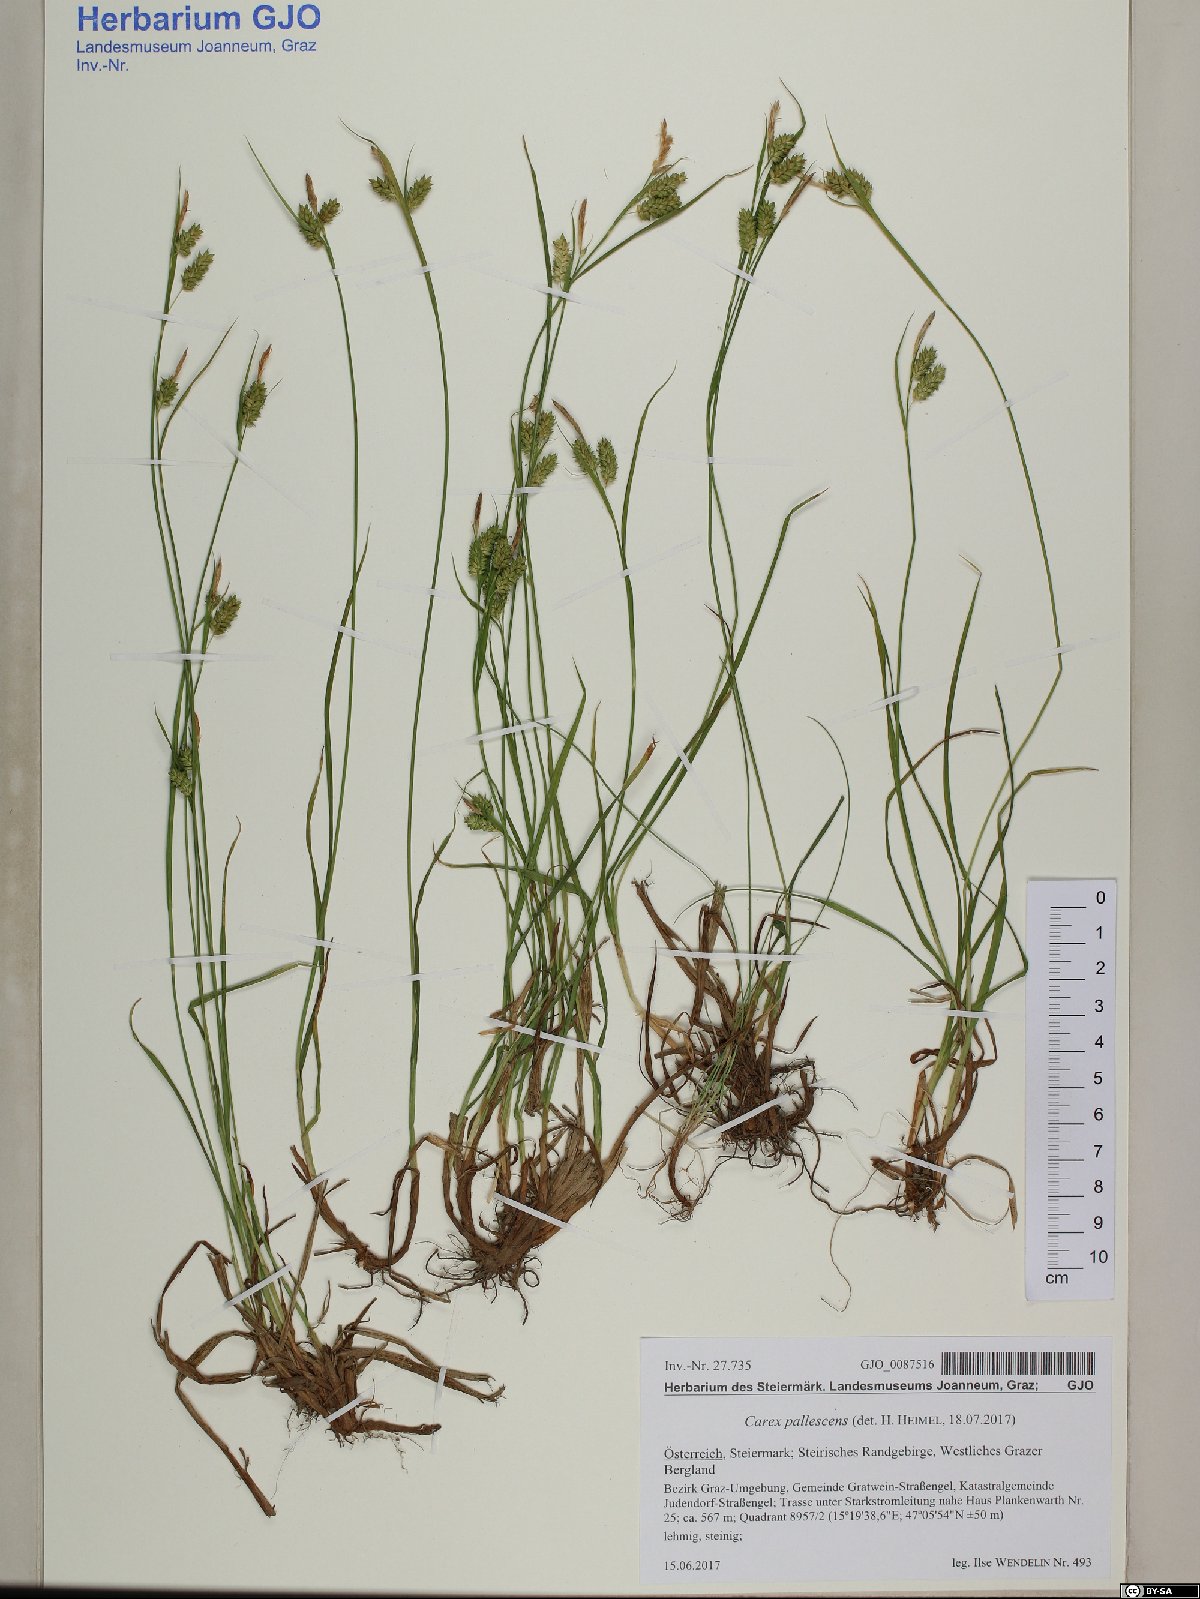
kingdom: Plantae
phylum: Tracheophyta
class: Liliopsida
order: Poales
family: Cyperaceae
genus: Carex
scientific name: Carex pallescens
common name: Pale sedge
